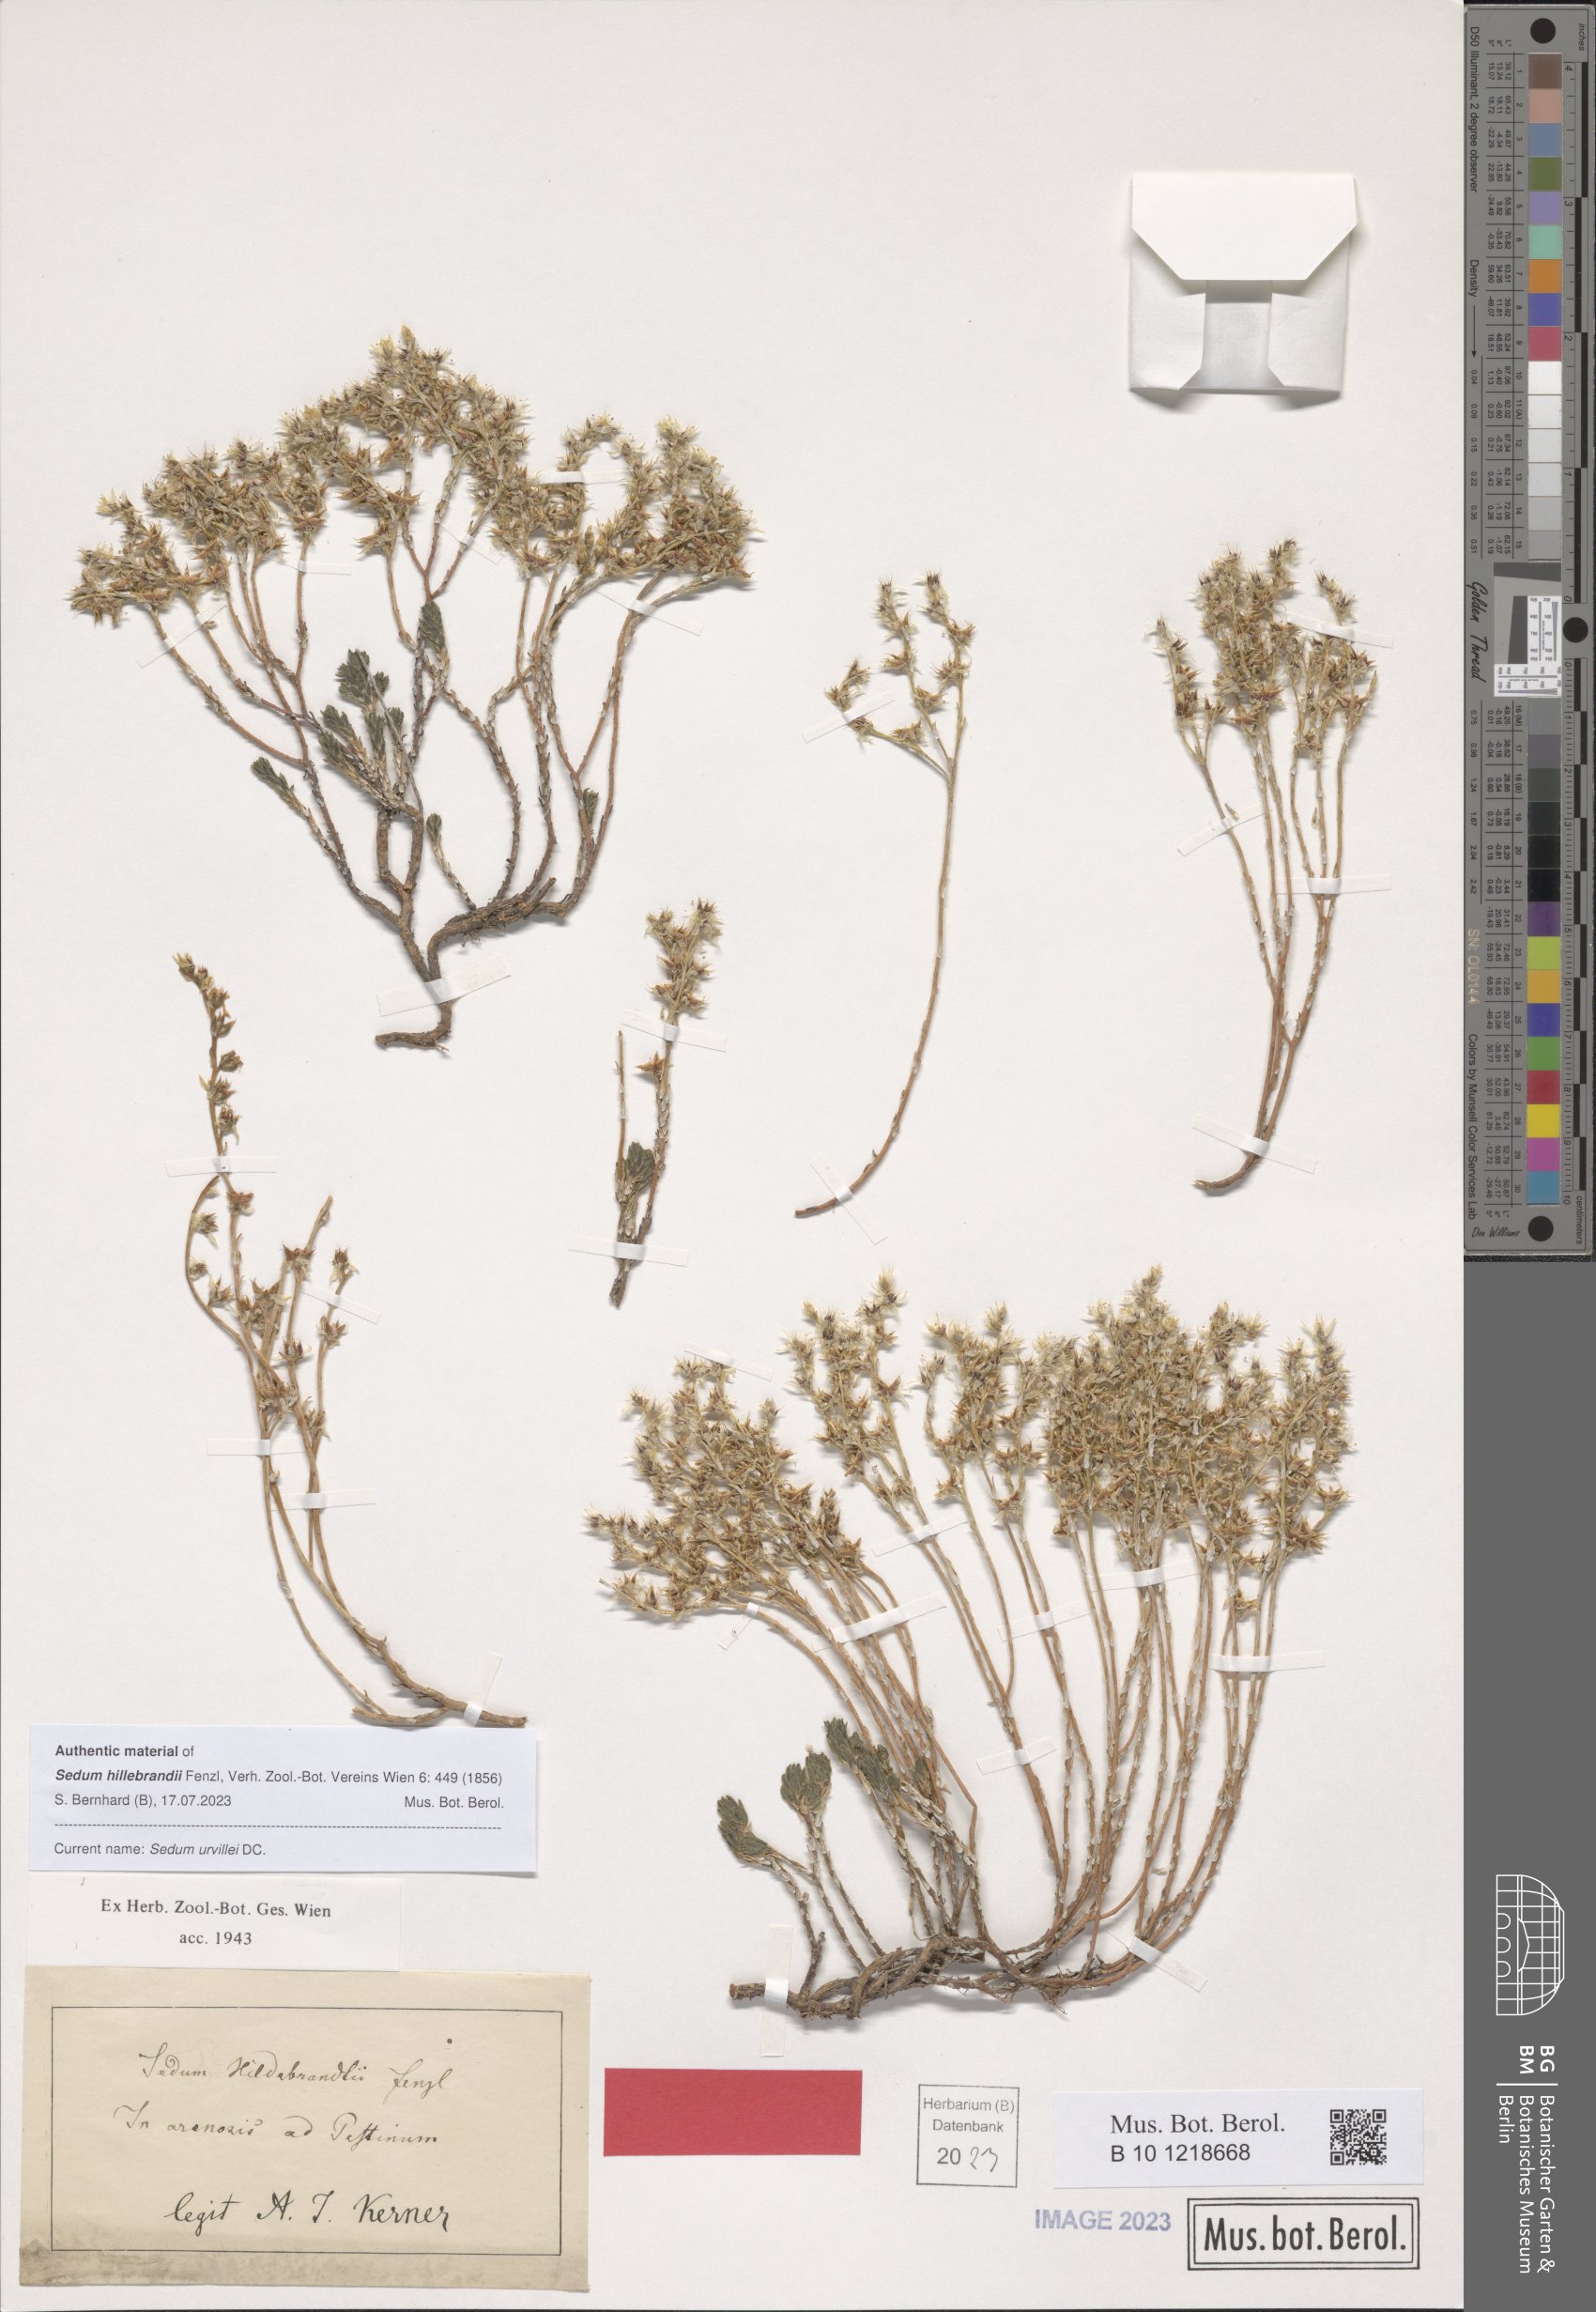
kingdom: Plantae
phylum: Tracheophyta
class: Magnoliopsida
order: Saxifragales
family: Crassulaceae
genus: Sedum
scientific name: Sedum urvillei
